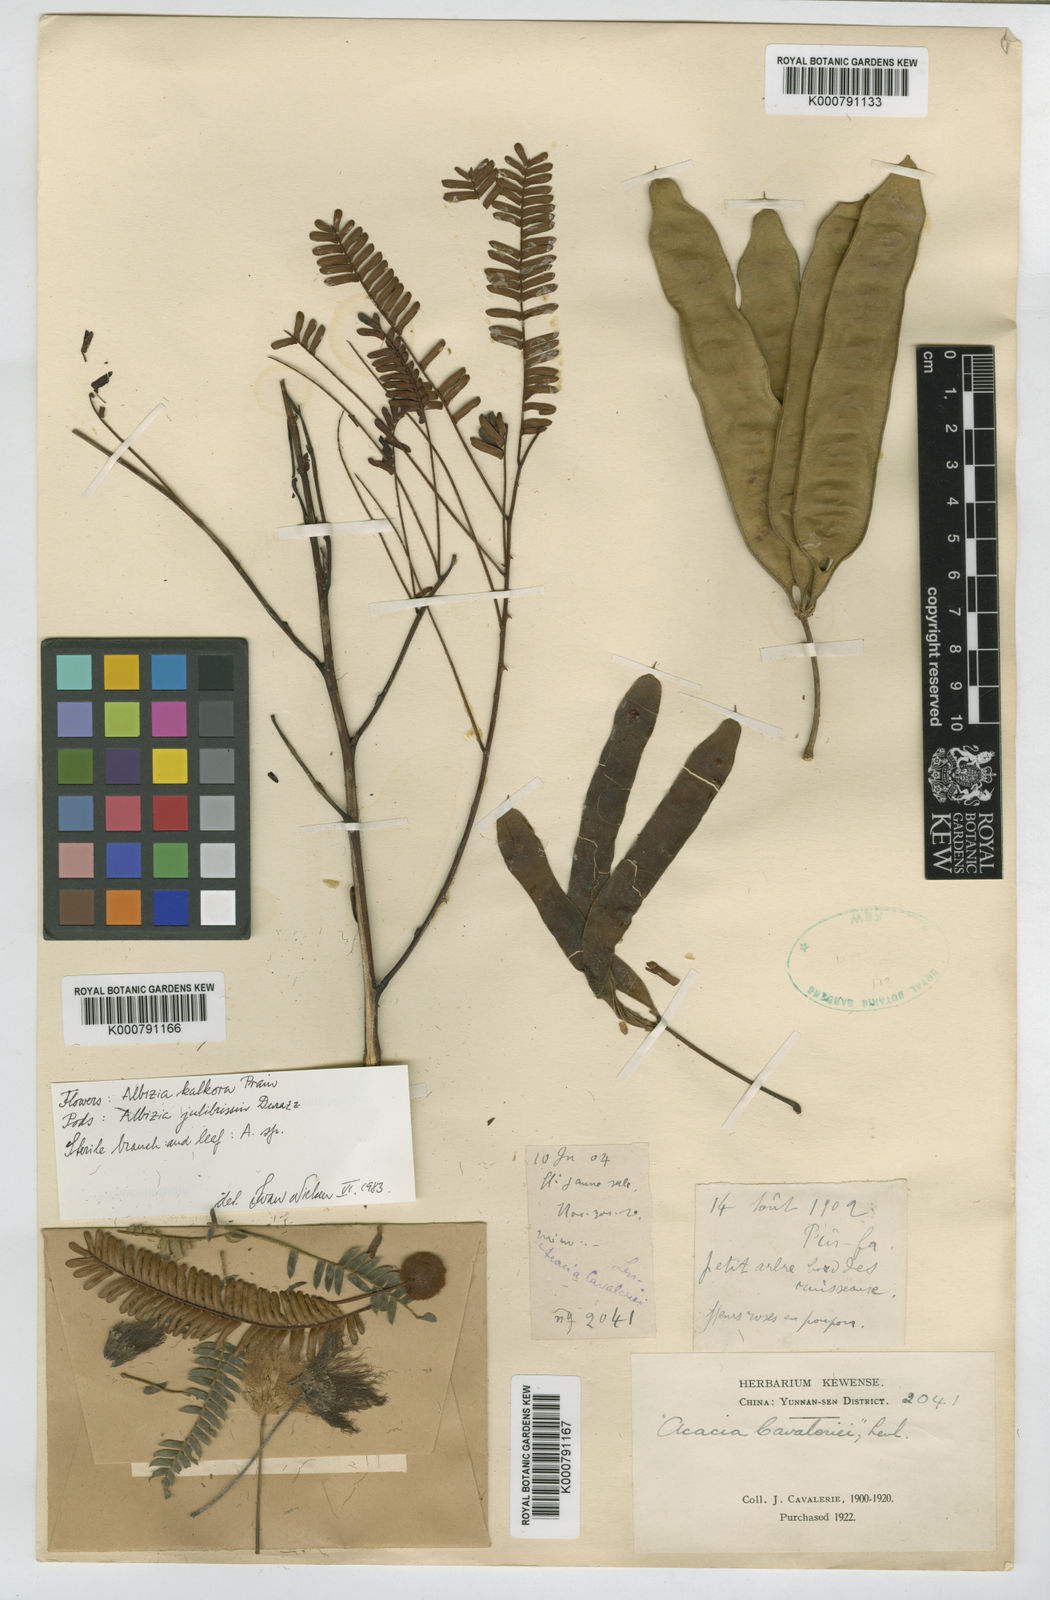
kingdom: Plantae
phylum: Tracheophyta
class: Magnoliopsida
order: Fabales
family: Fabaceae
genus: Acacia
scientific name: Acacia
